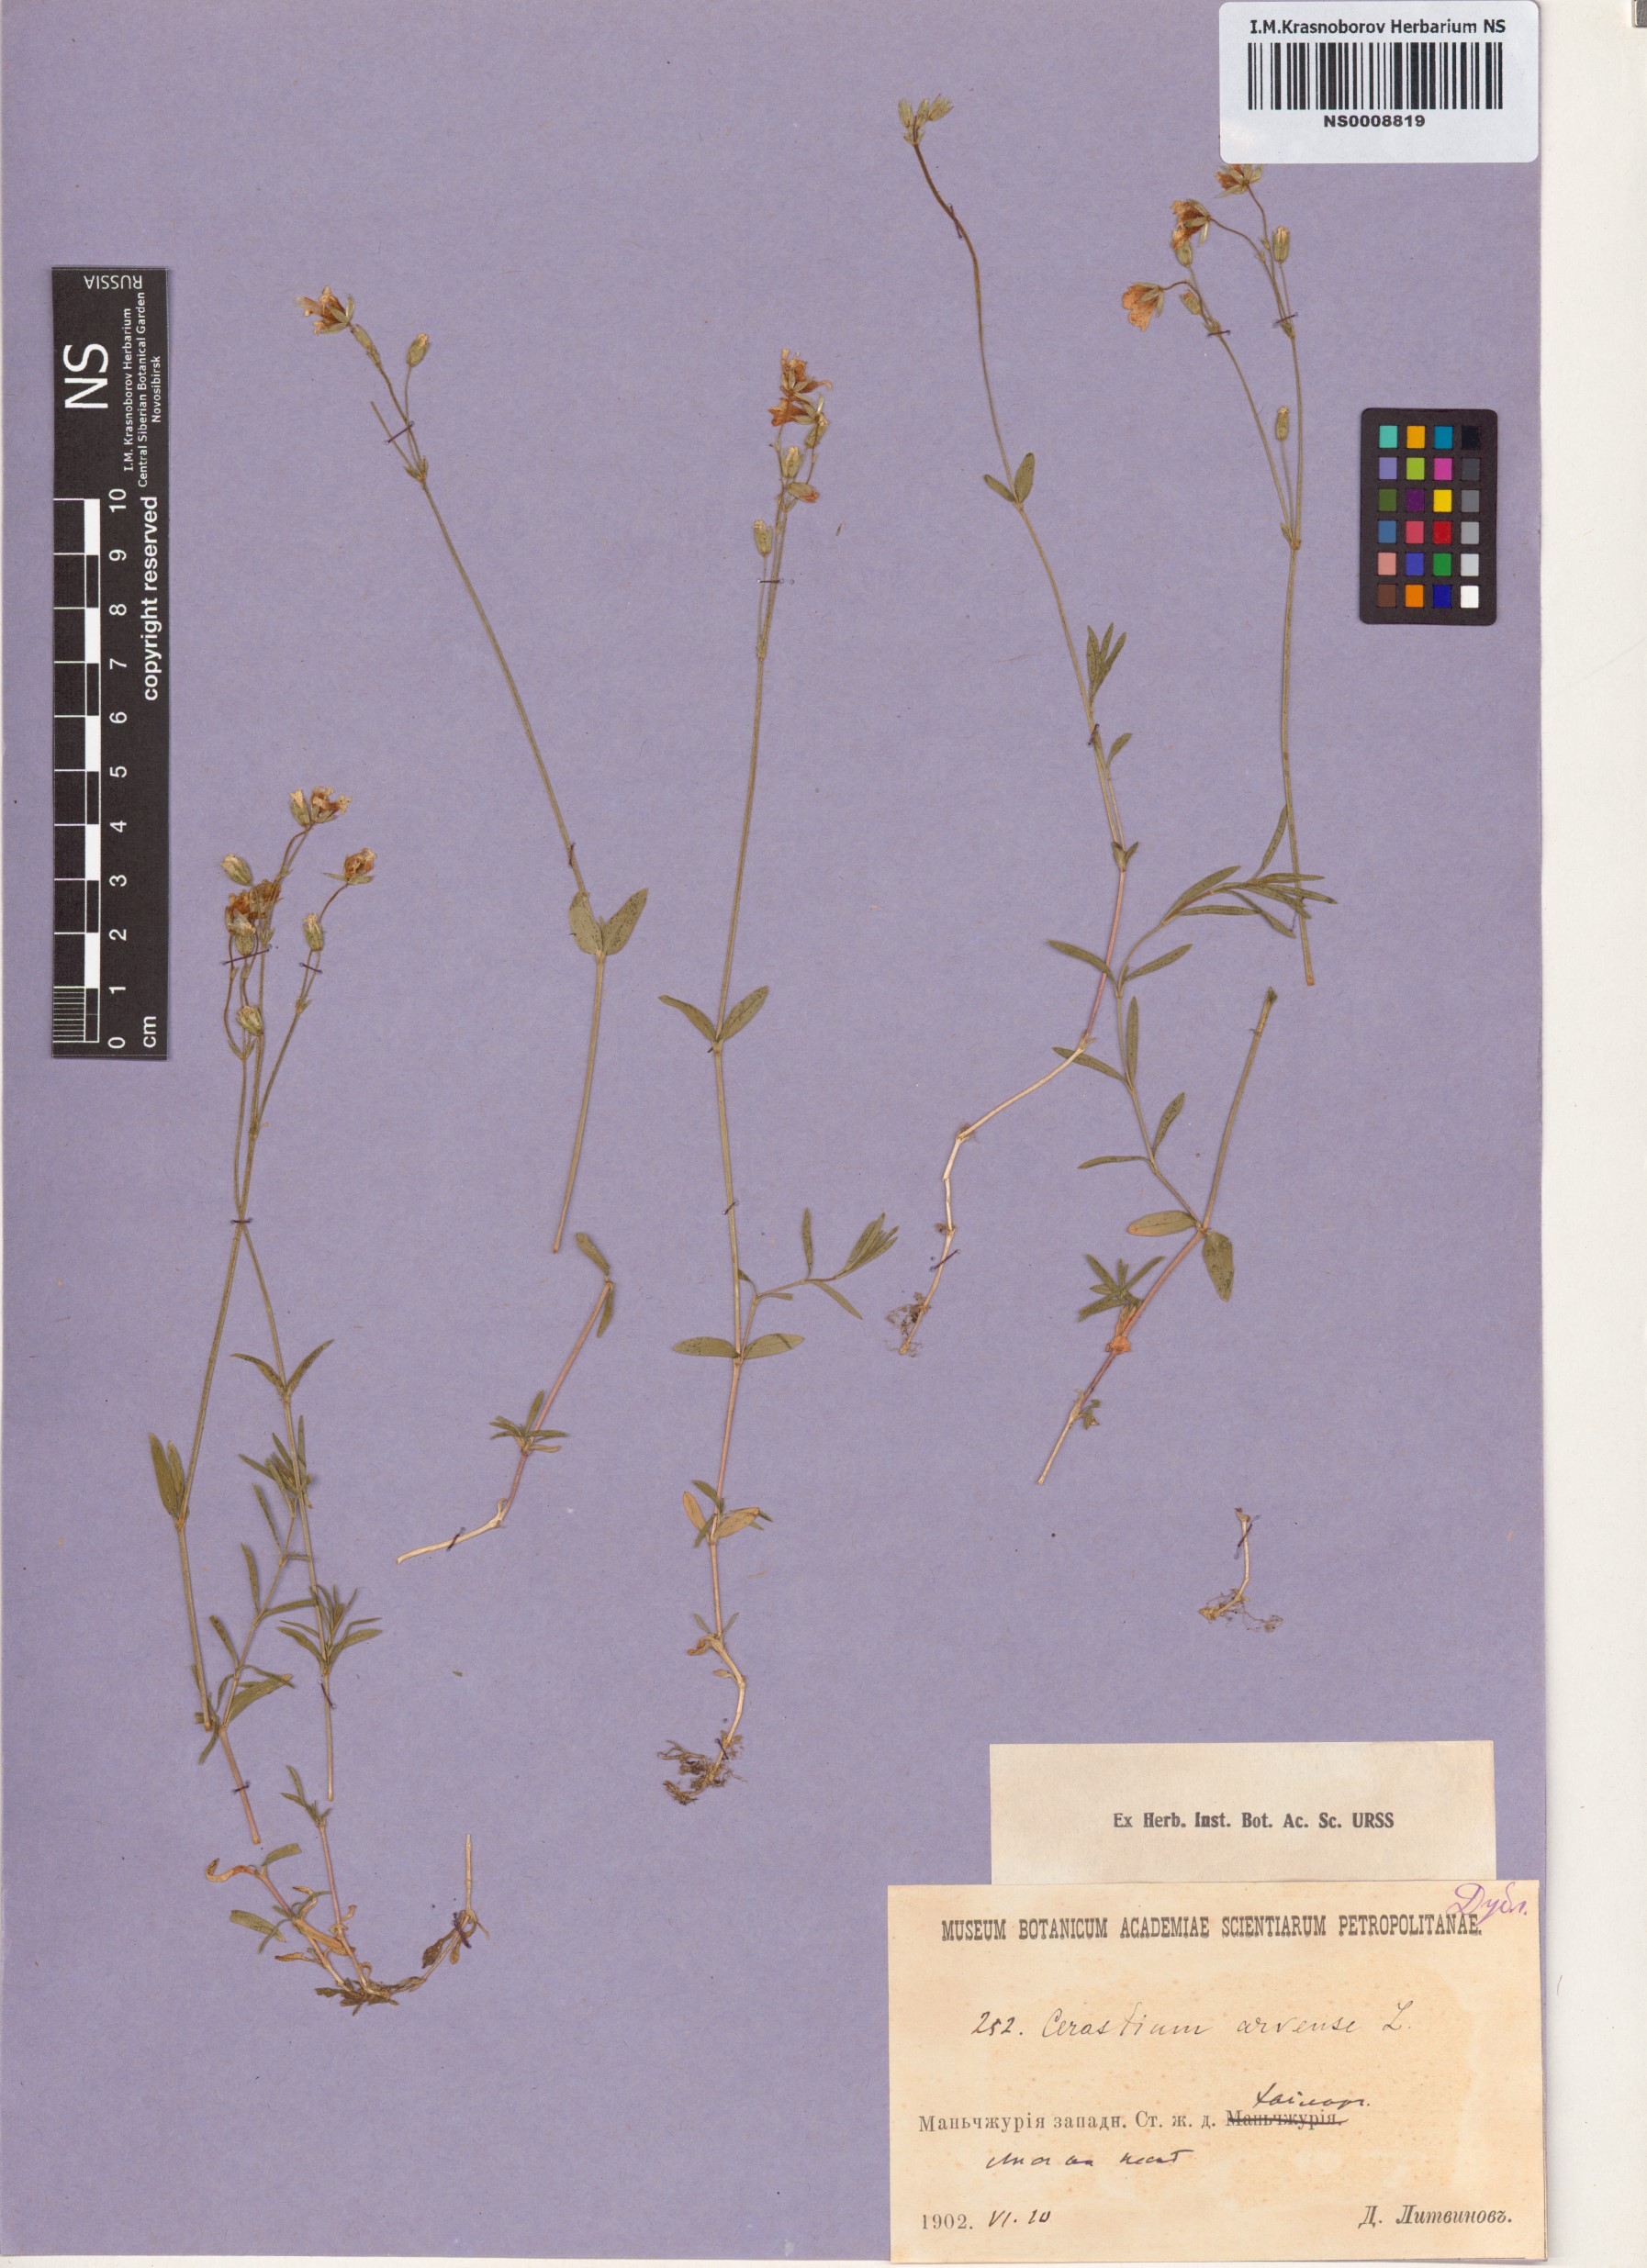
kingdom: Plantae
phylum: Tracheophyta
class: Magnoliopsida
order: Caryophyllales
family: Caryophyllaceae
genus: Cerastium
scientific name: Cerastium arvense
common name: Field mouse-ear
